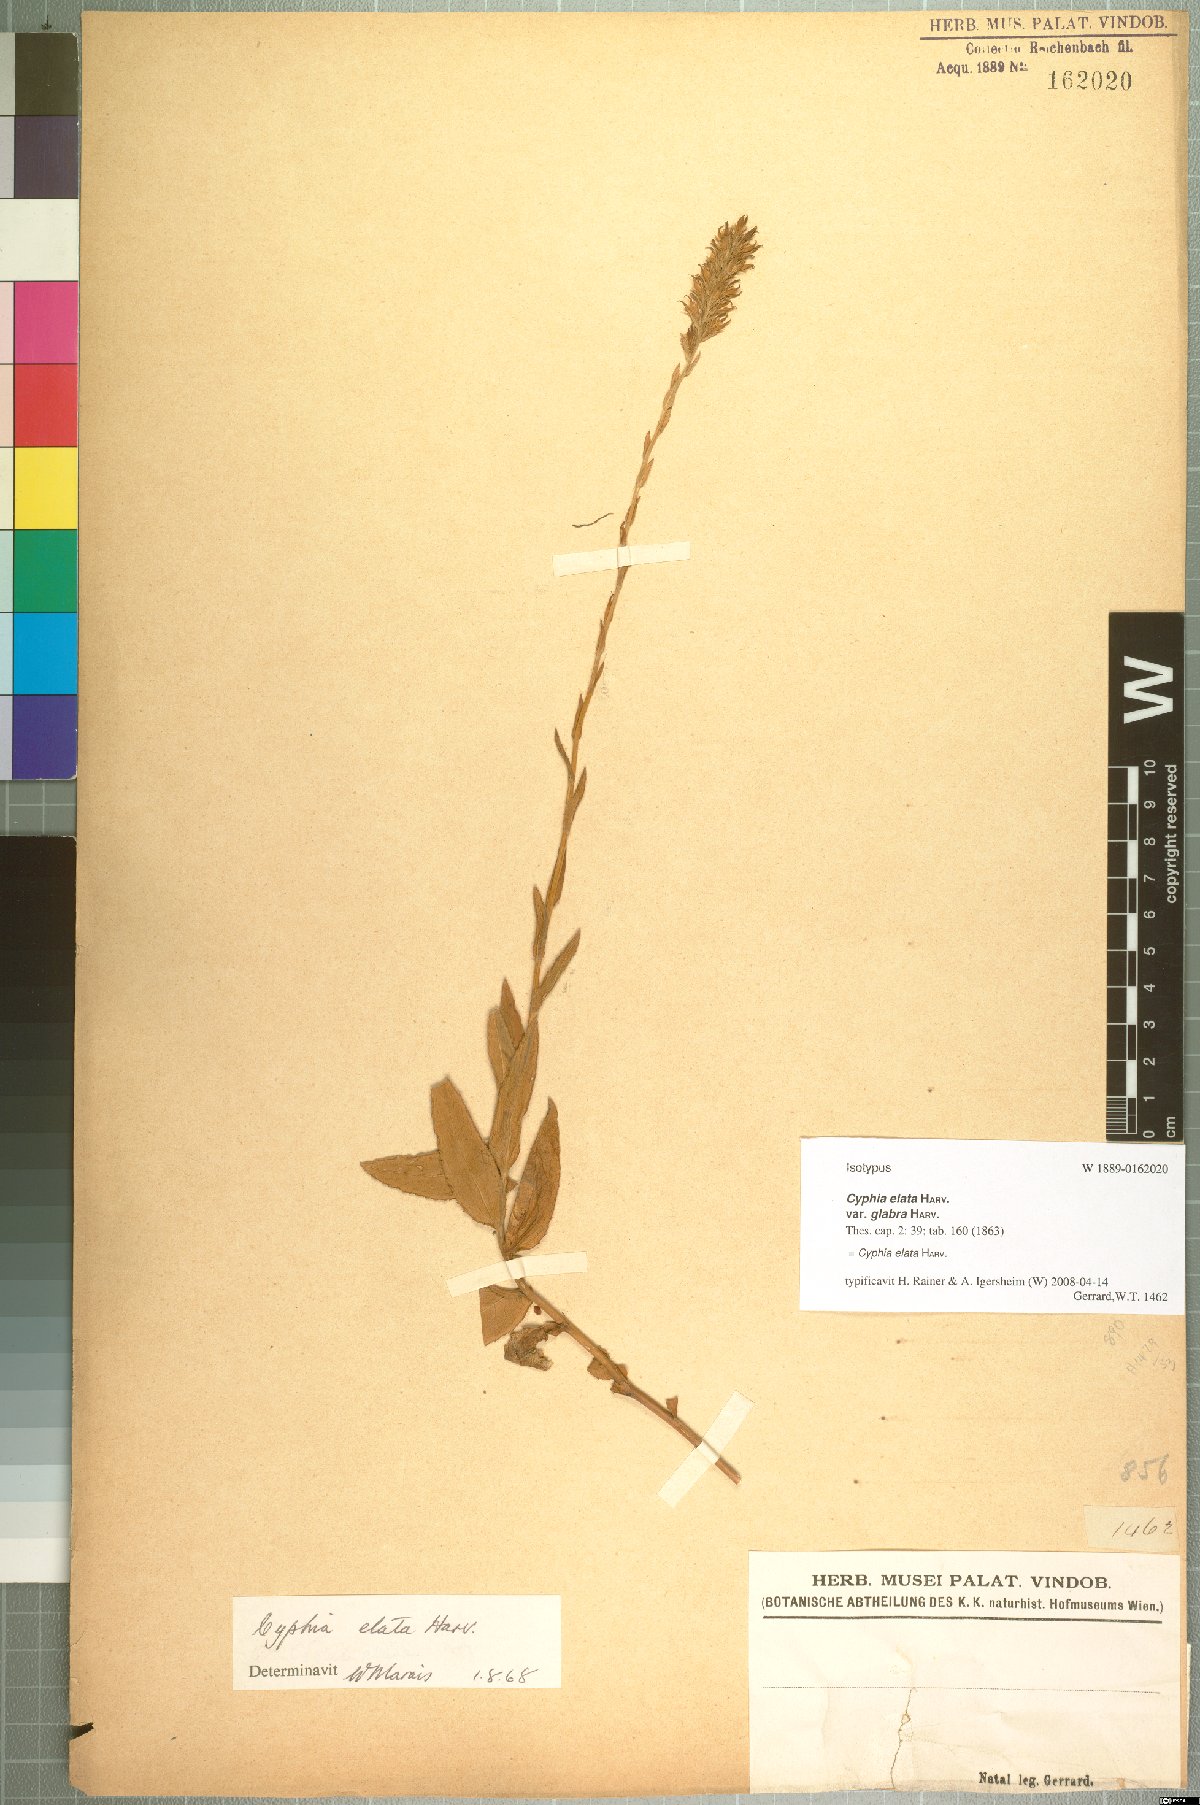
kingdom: Plantae
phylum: Tracheophyta
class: Magnoliopsida
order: Asterales
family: Campanulaceae
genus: Cyphia
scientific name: Cyphia elata
